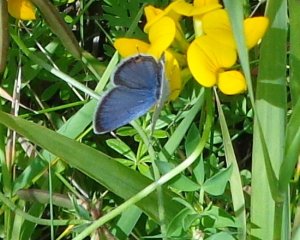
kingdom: Animalia
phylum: Arthropoda
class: Insecta
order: Lepidoptera
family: Lycaenidae
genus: Elkalyce
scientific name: Elkalyce comyntas
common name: Eastern Tailed-Blue
